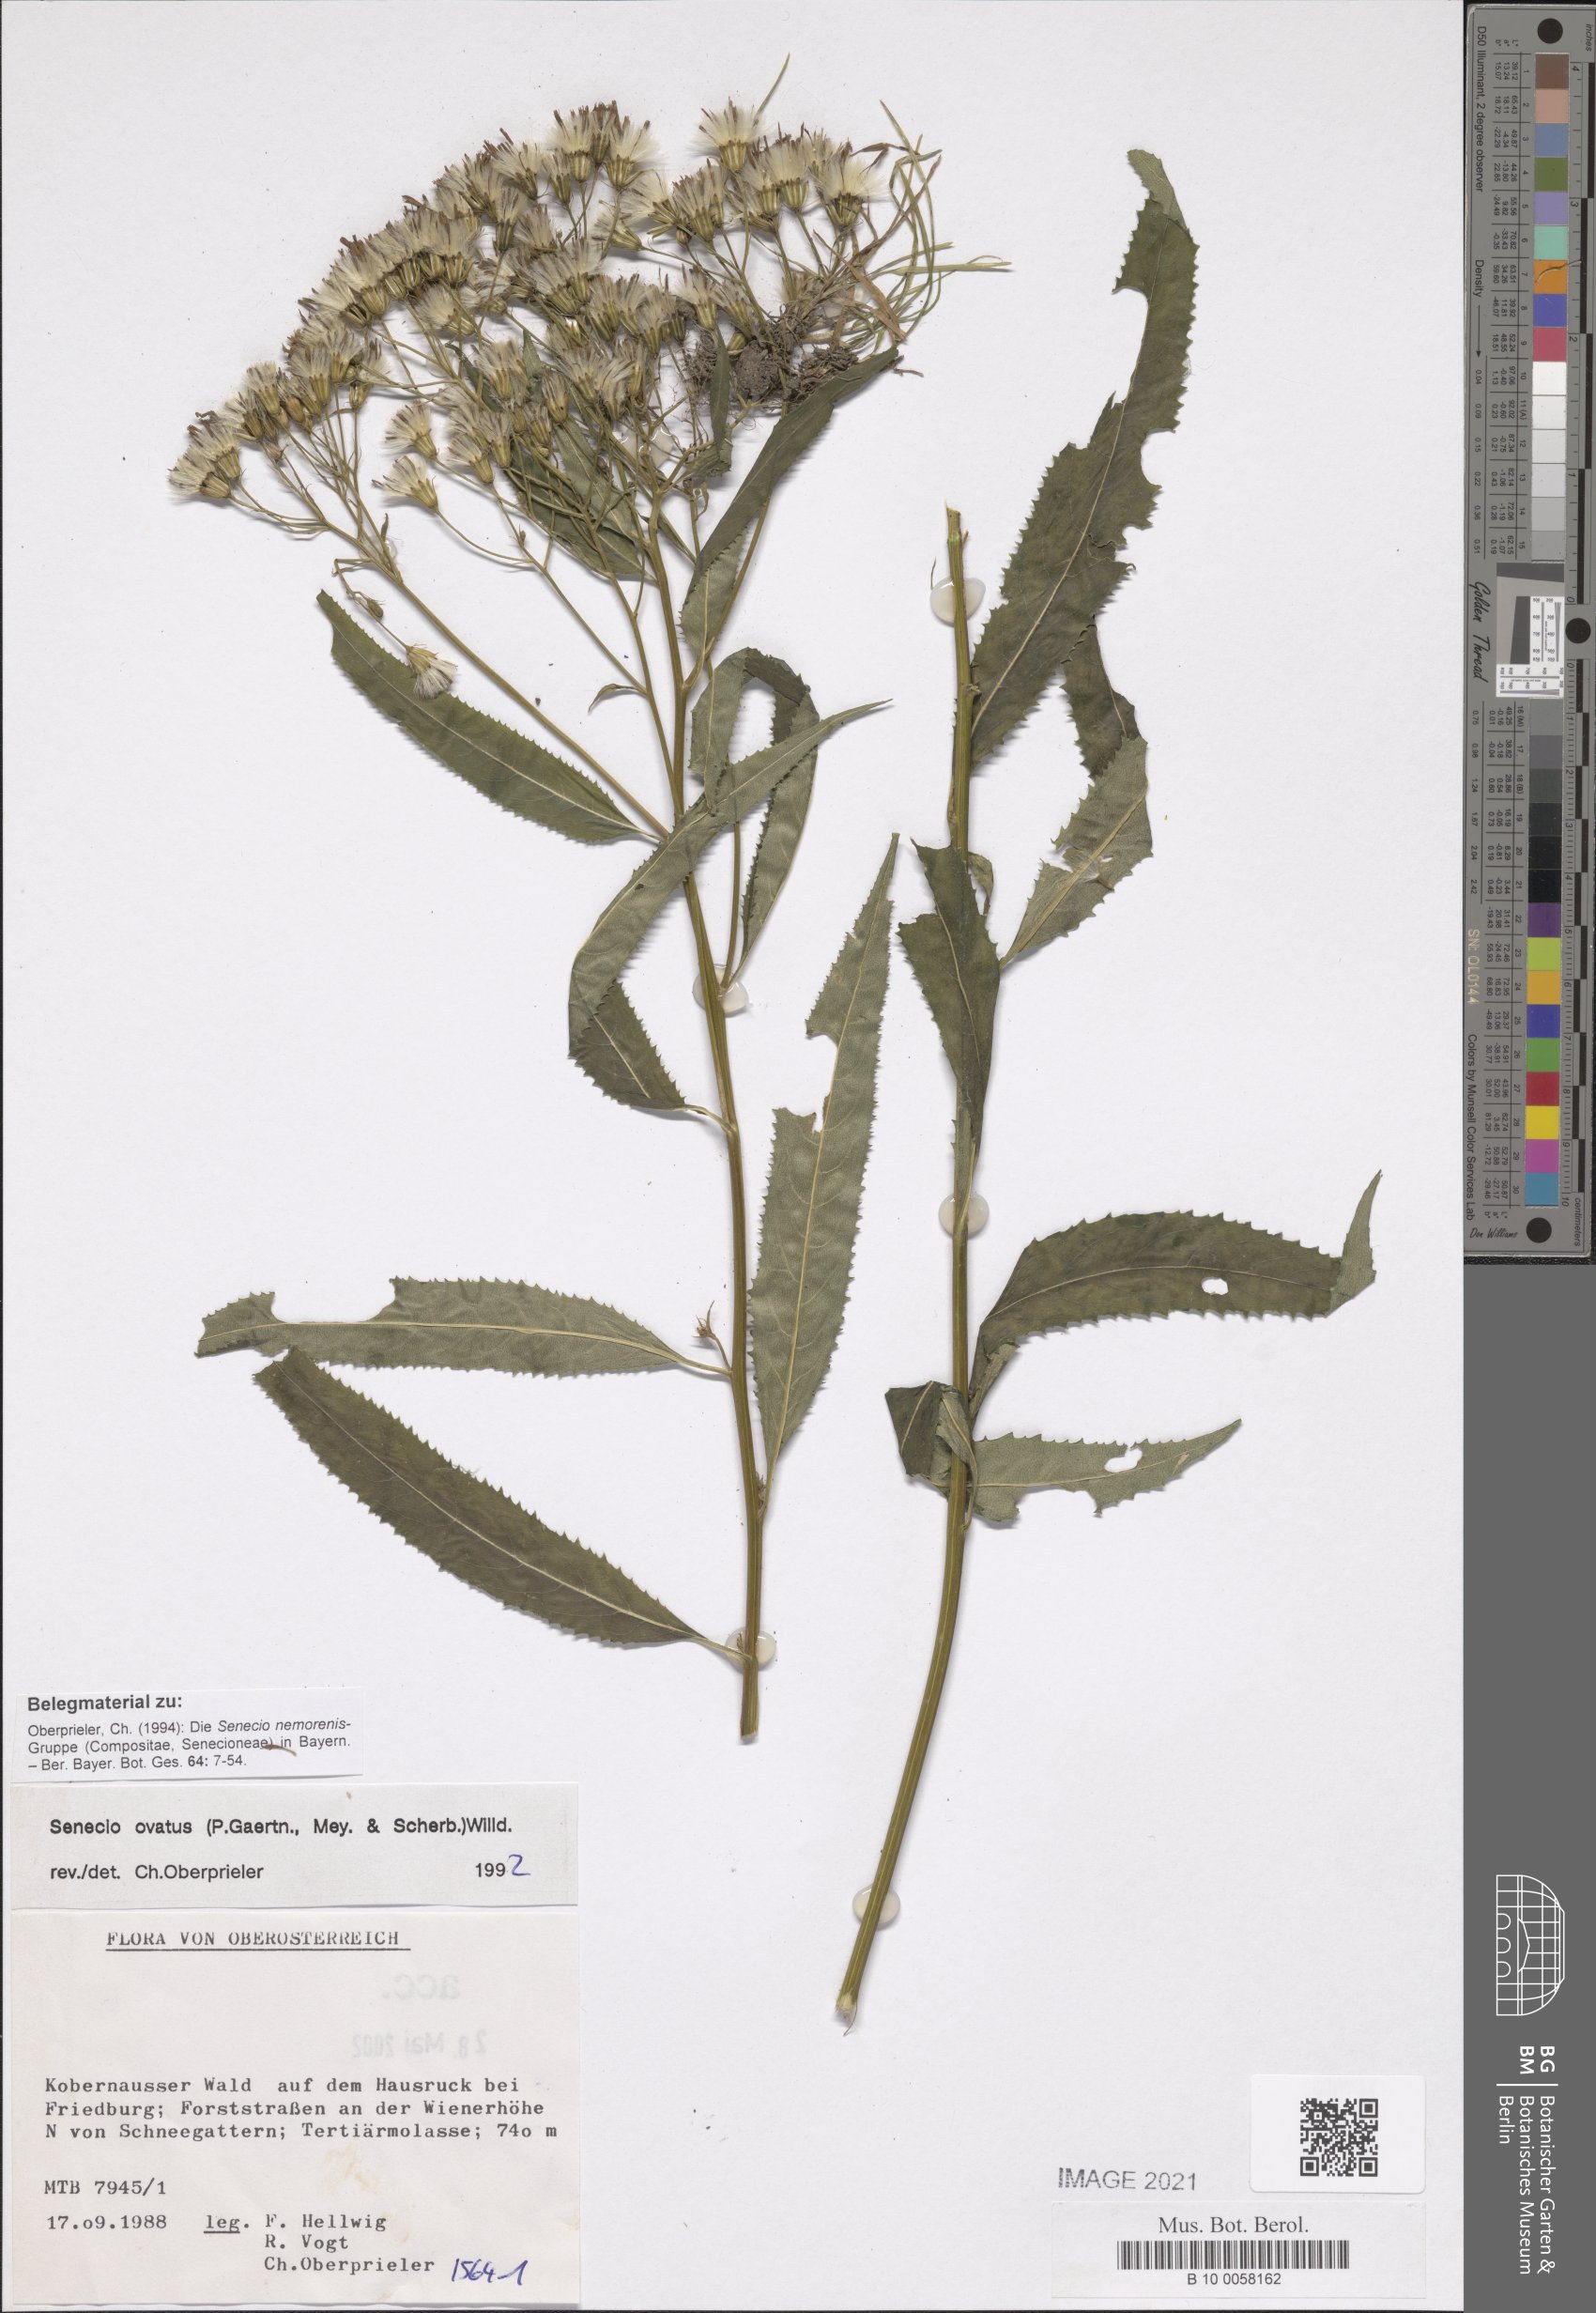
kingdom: Plantae
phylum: Tracheophyta
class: Magnoliopsida
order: Asterales
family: Asteraceae
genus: Senecio
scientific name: Senecio ovatus
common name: Wood ragwort
